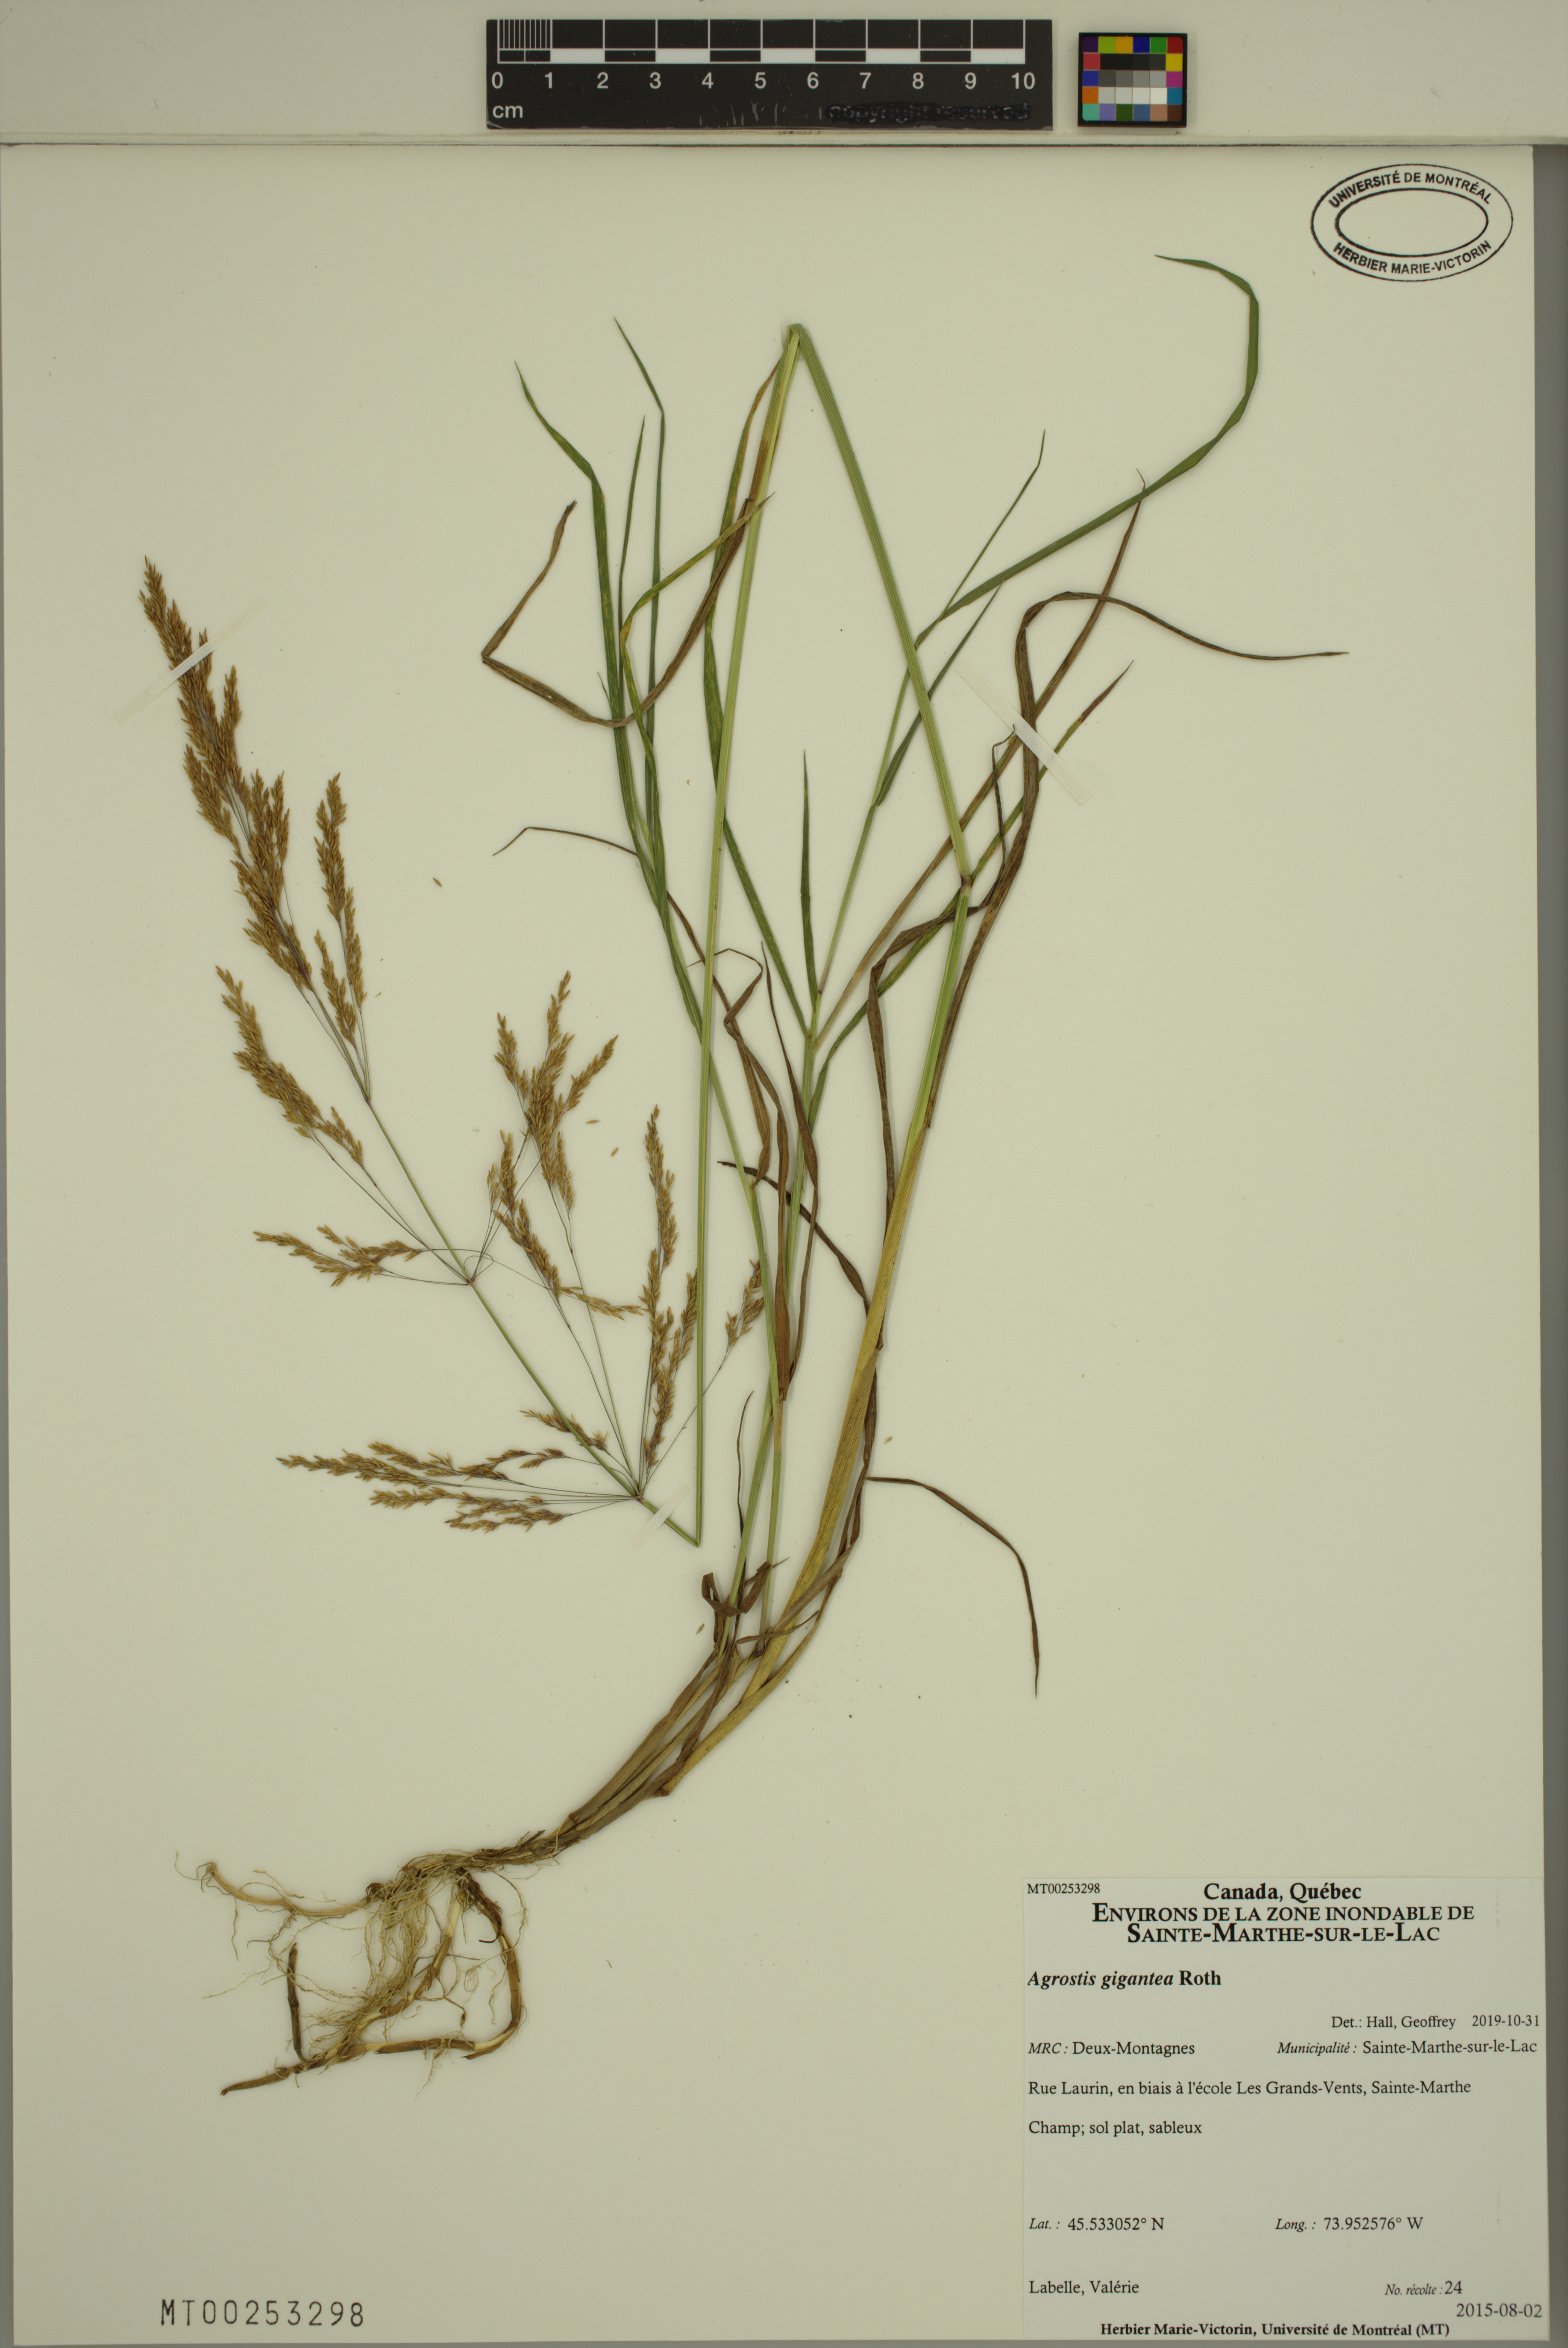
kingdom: Plantae
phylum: Tracheophyta
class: Liliopsida
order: Poales
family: Poaceae
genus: Agrostis
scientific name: Agrostis gigantea
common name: Black bent
